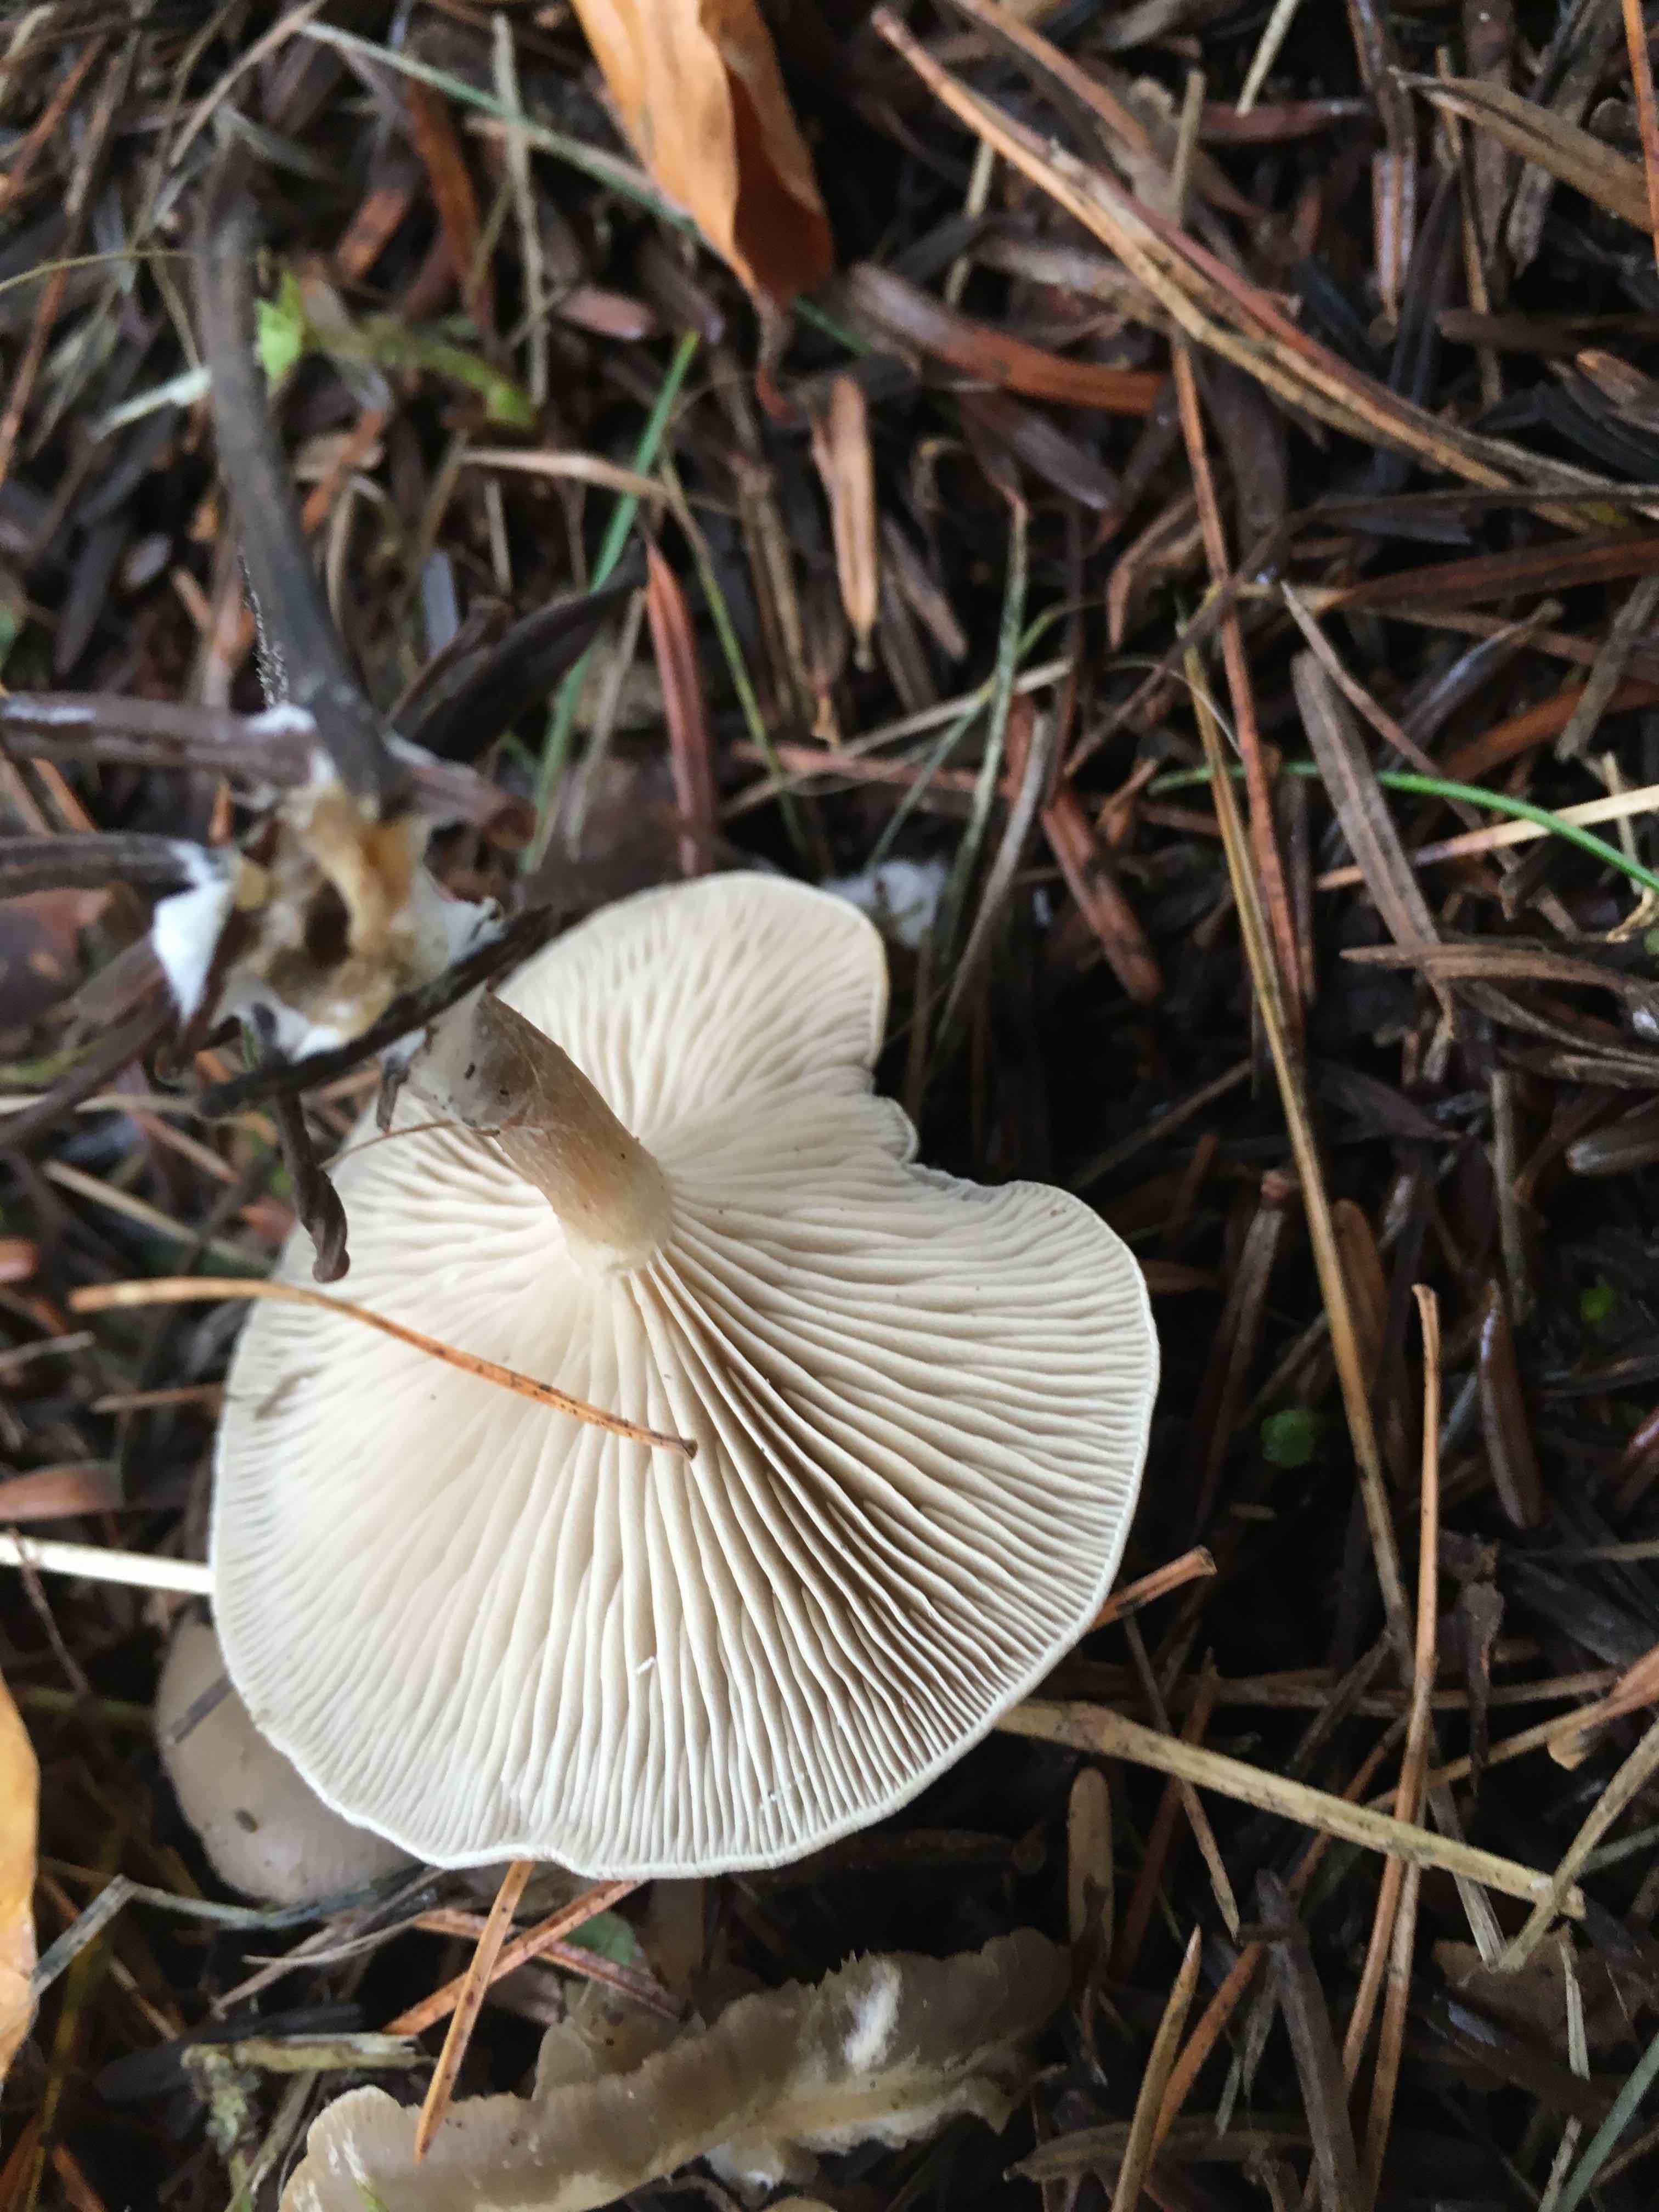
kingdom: Fungi
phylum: Basidiomycota
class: Agaricomycetes
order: Agaricales
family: Tricholomataceae
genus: Clitocybe
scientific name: Clitocybe metachroa
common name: grå tragthat
